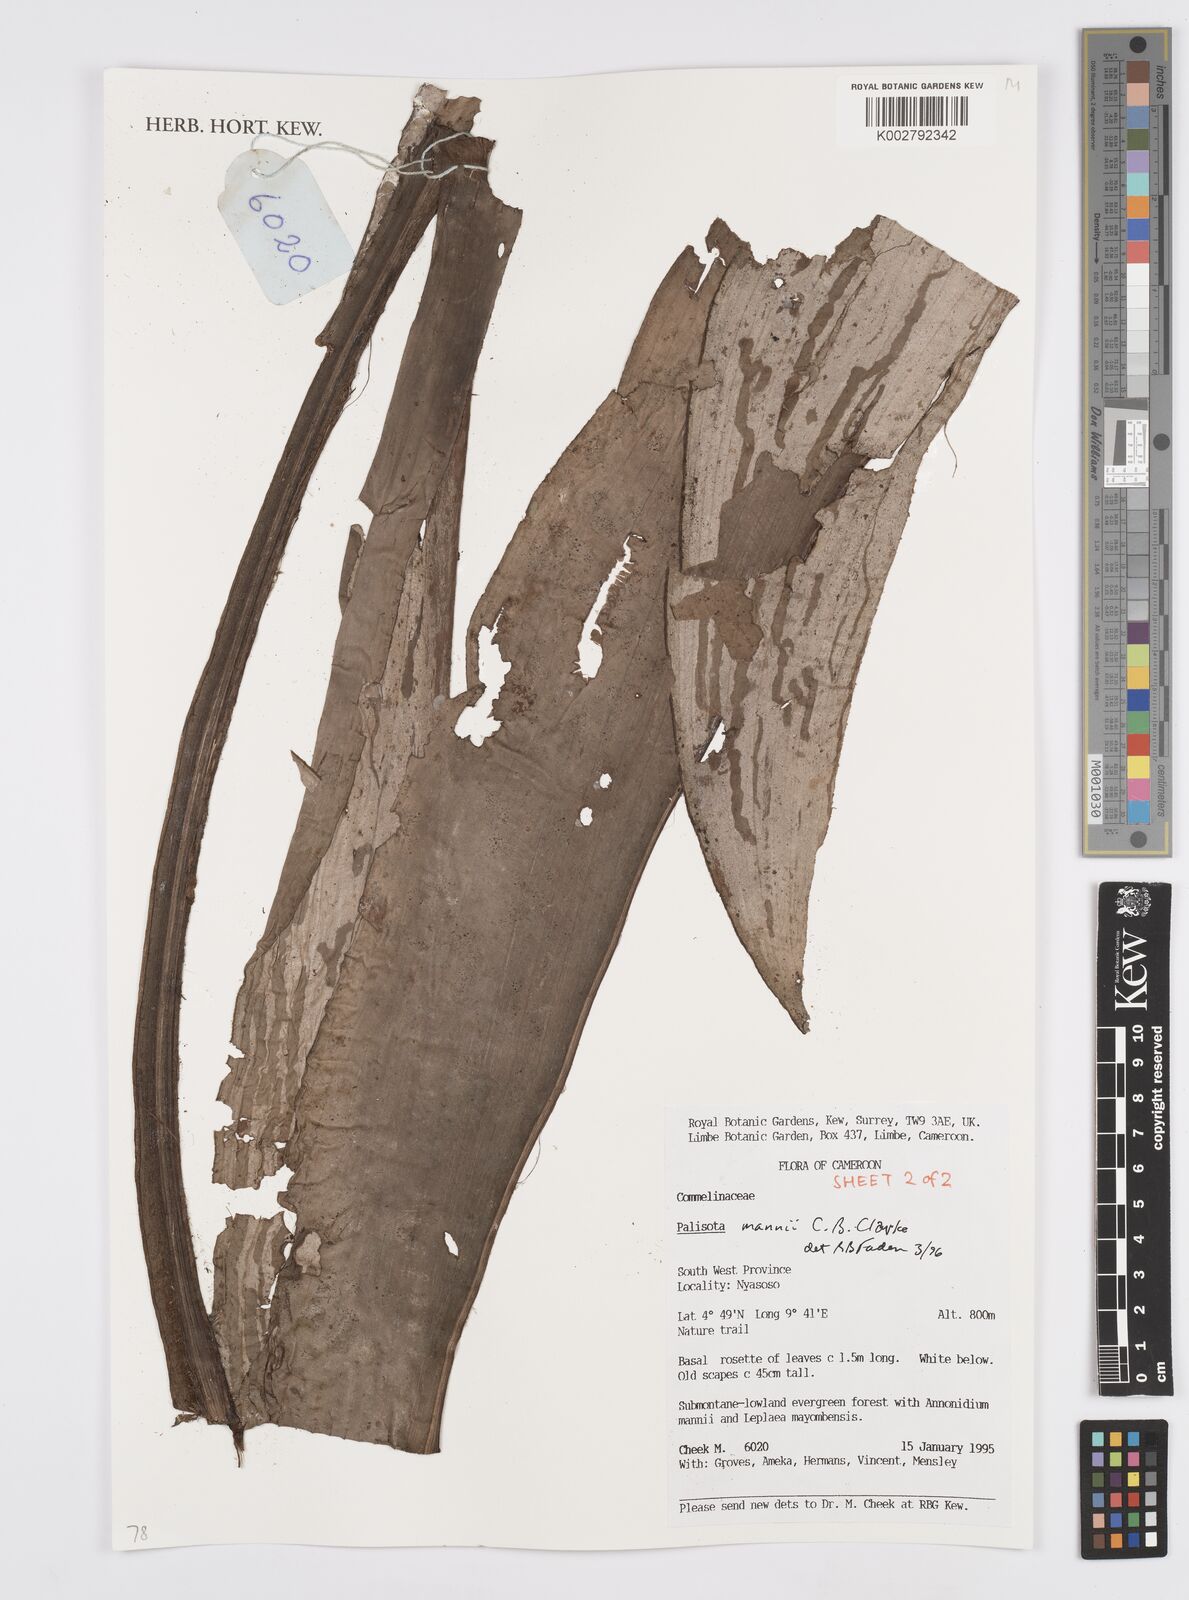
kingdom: Plantae
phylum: Tracheophyta
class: Liliopsida
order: Commelinales
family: Commelinaceae
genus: Palisota
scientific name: Palisota mannii
